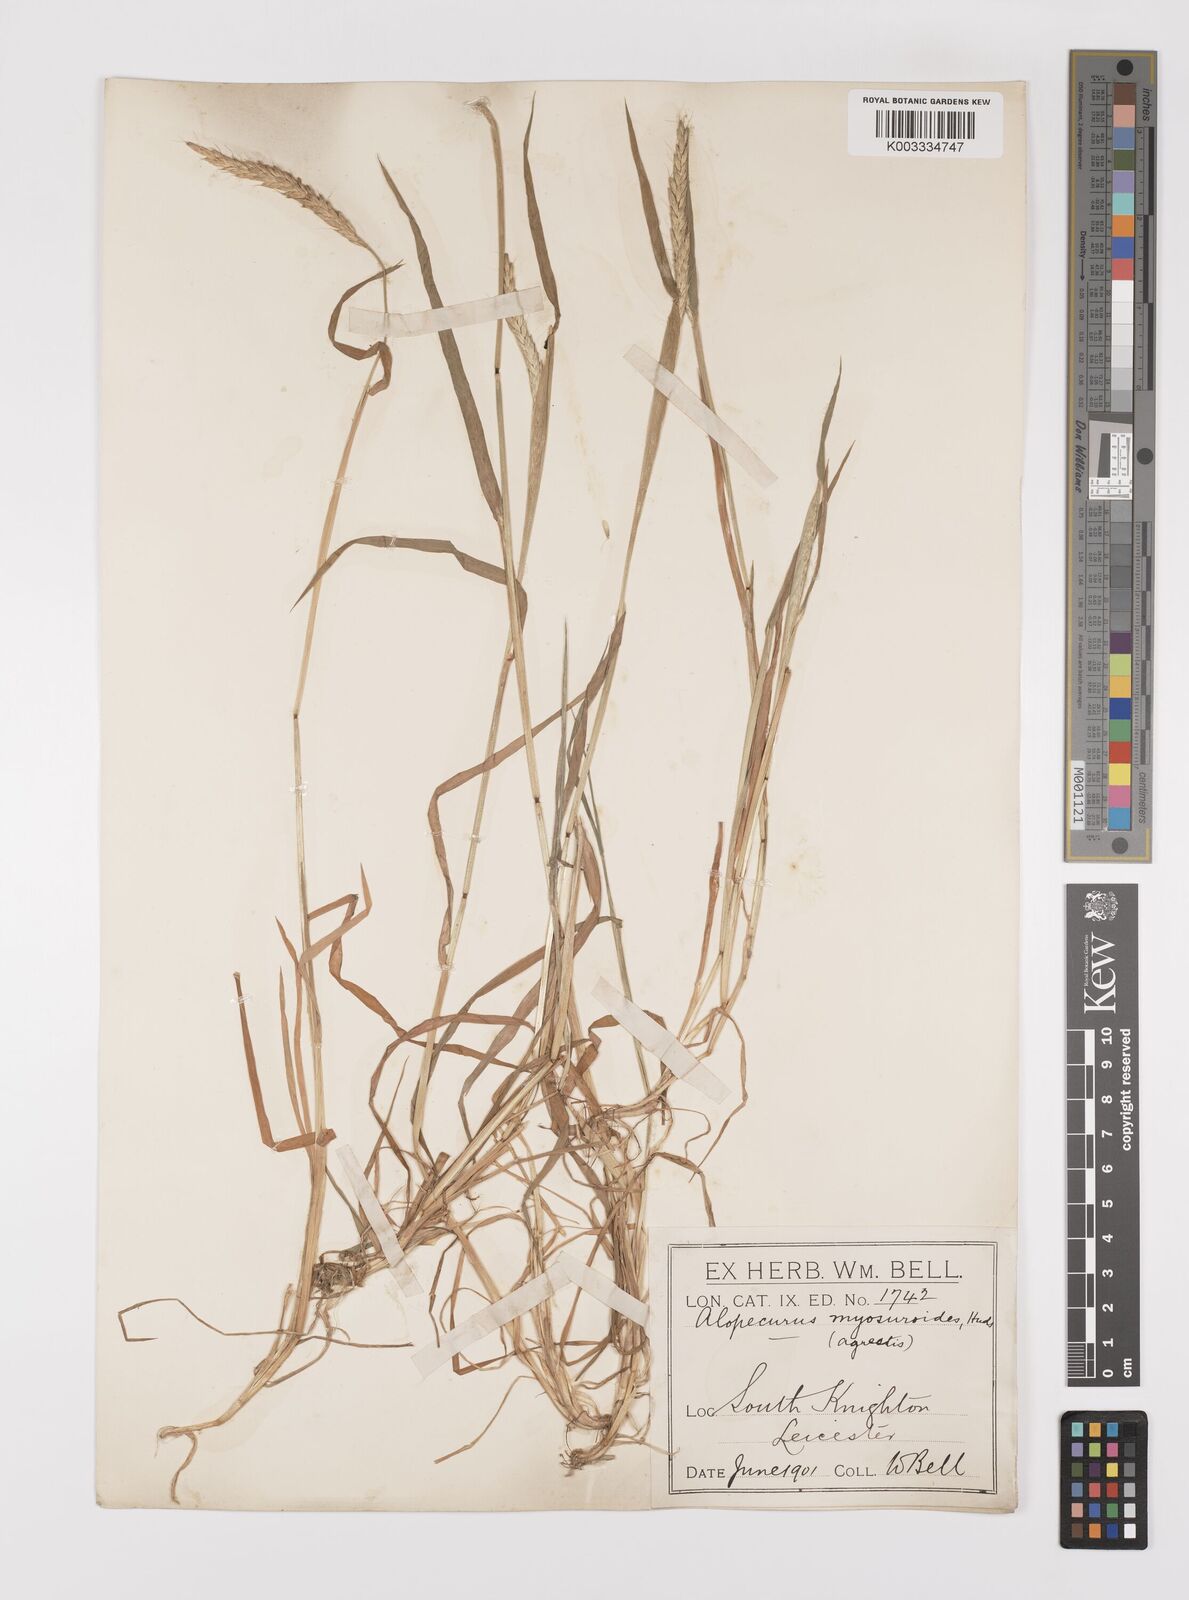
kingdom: Plantae
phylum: Tracheophyta
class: Liliopsida
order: Poales
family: Poaceae
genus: Alopecurus
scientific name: Alopecurus myosuroides
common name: Black-grass
